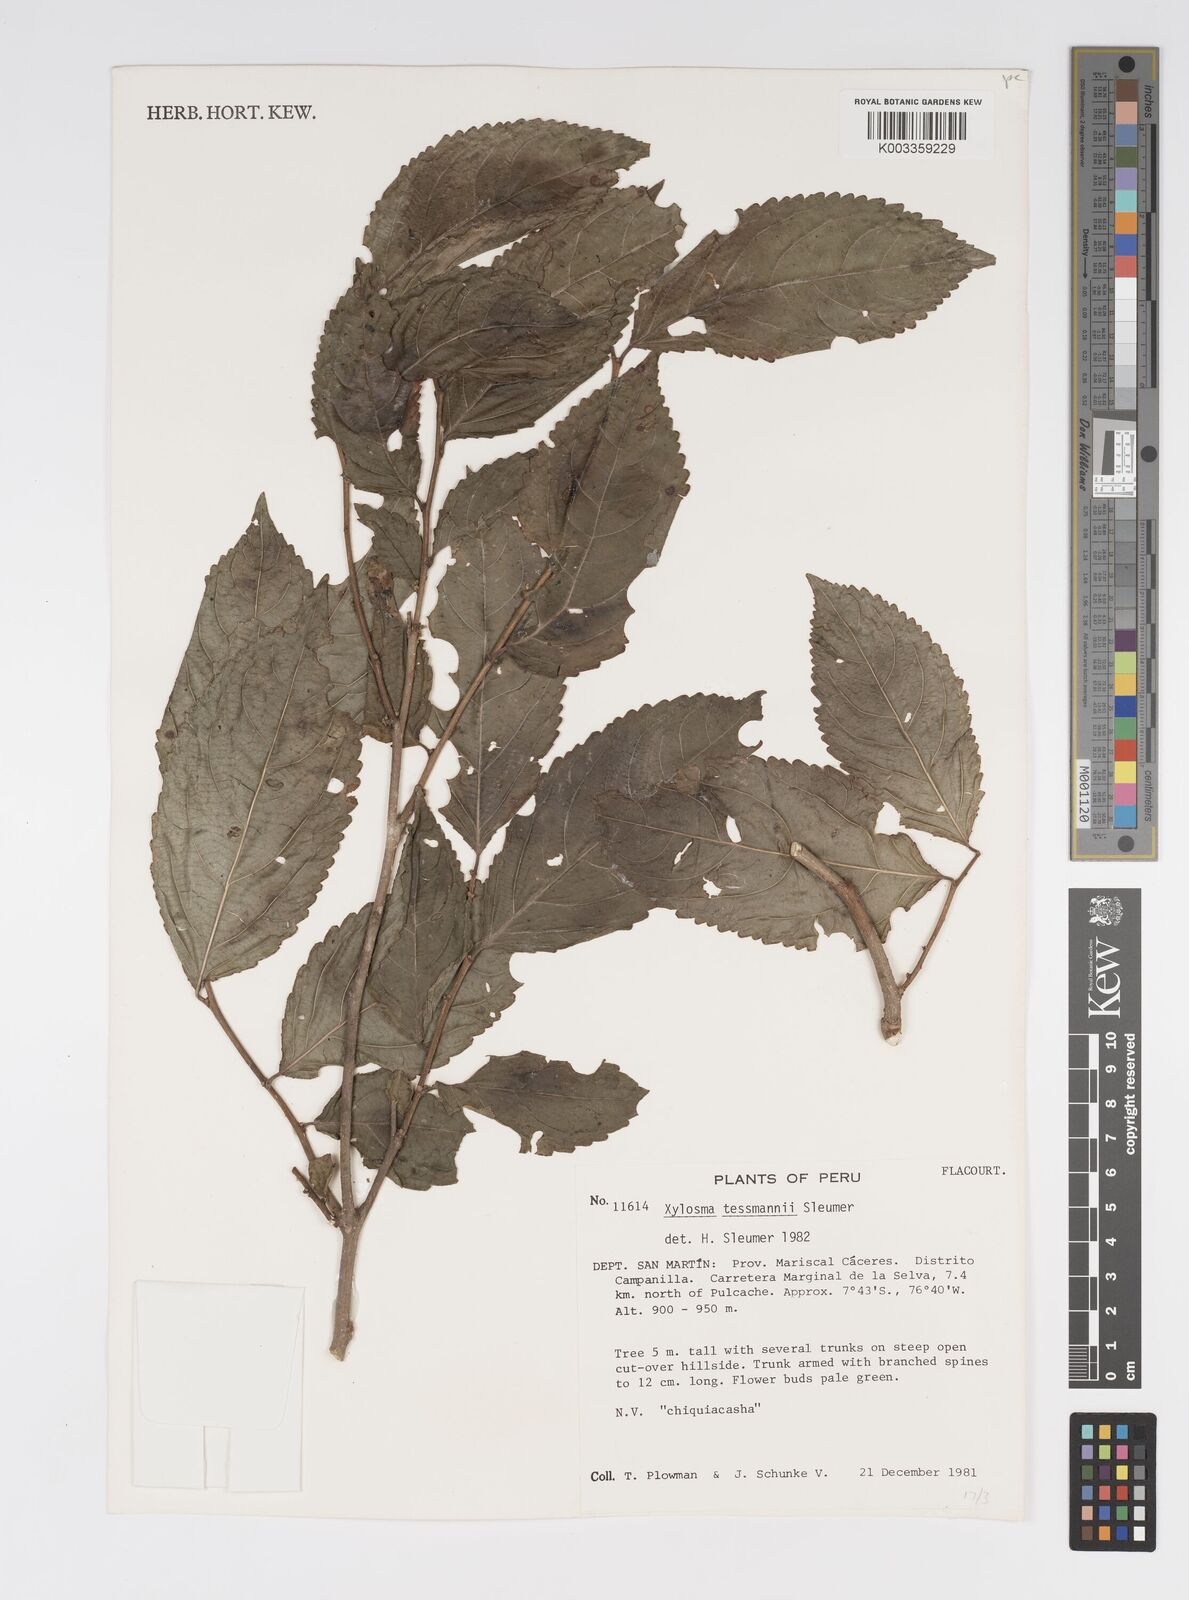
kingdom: Plantae
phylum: Tracheophyta
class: Magnoliopsida
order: Malpighiales
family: Salicaceae
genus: Xylosma
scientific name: Xylosma tessmannii
